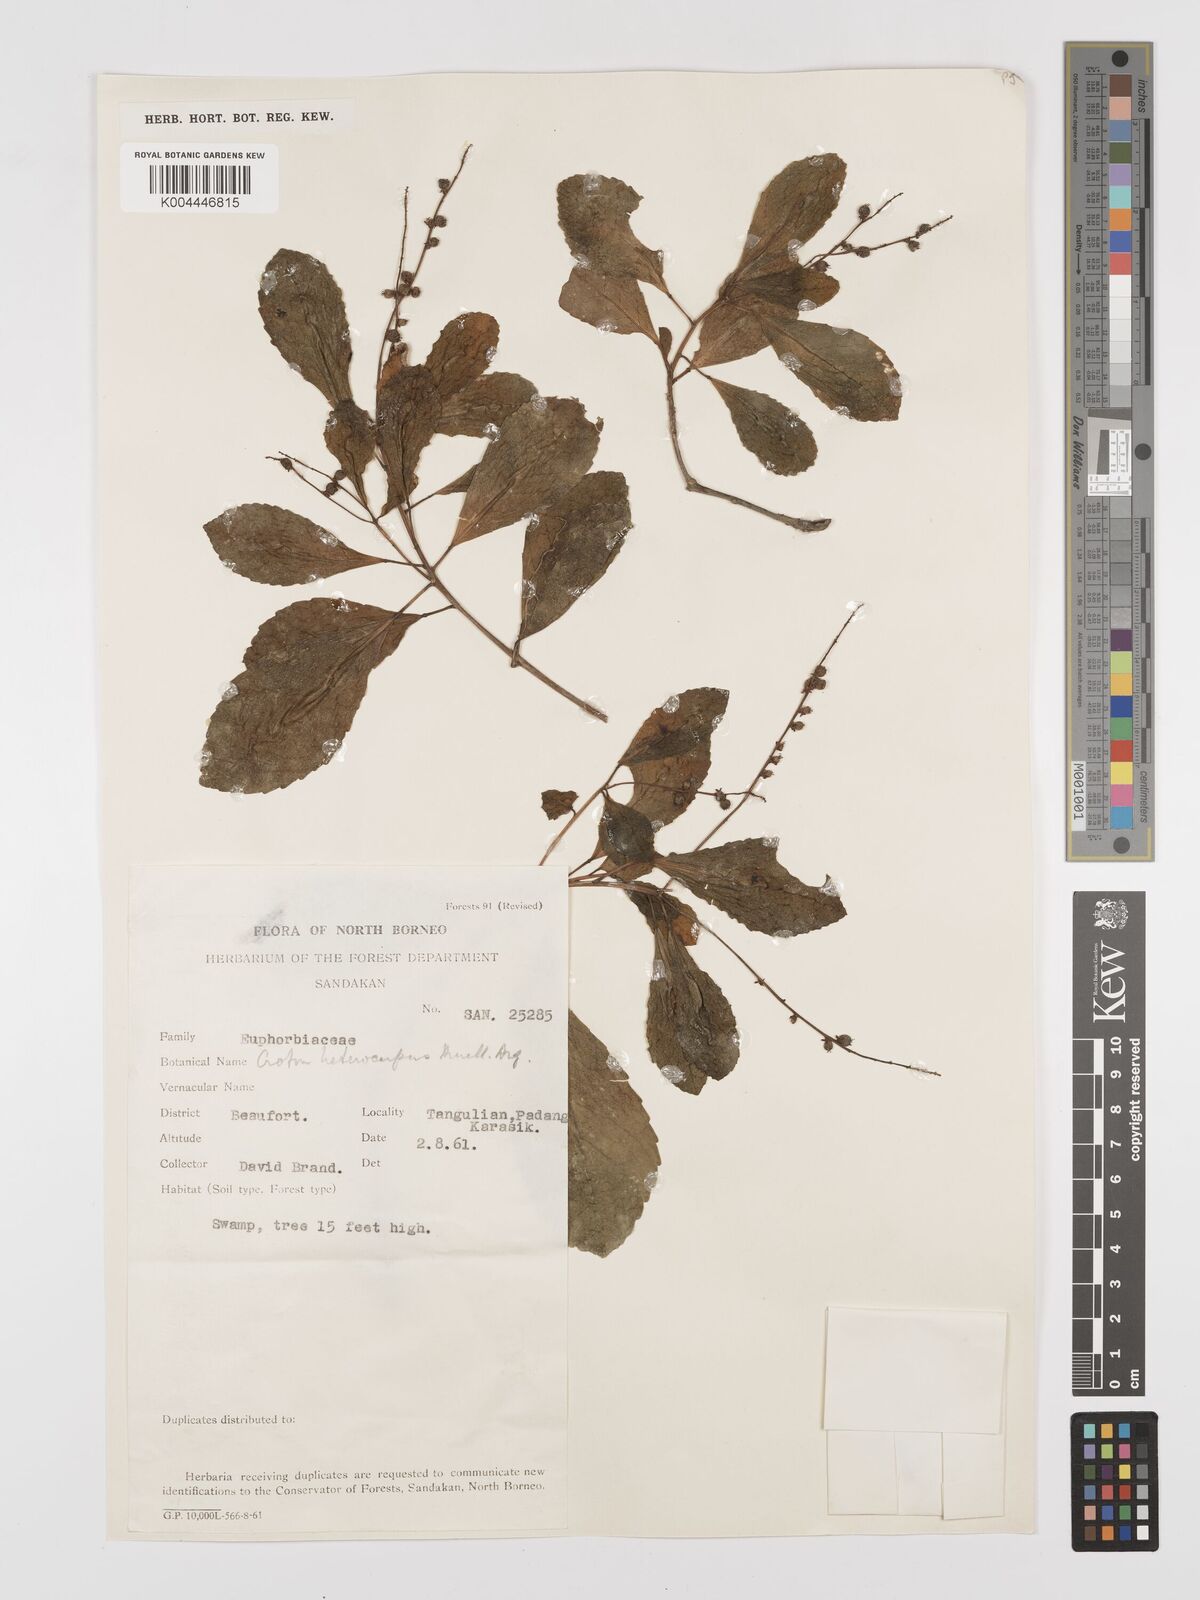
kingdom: Plantae
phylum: Tracheophyta
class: Magnoliopsida
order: Malpighiales
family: Euphorbiaceae
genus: Croton
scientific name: Croton heterocarpus
